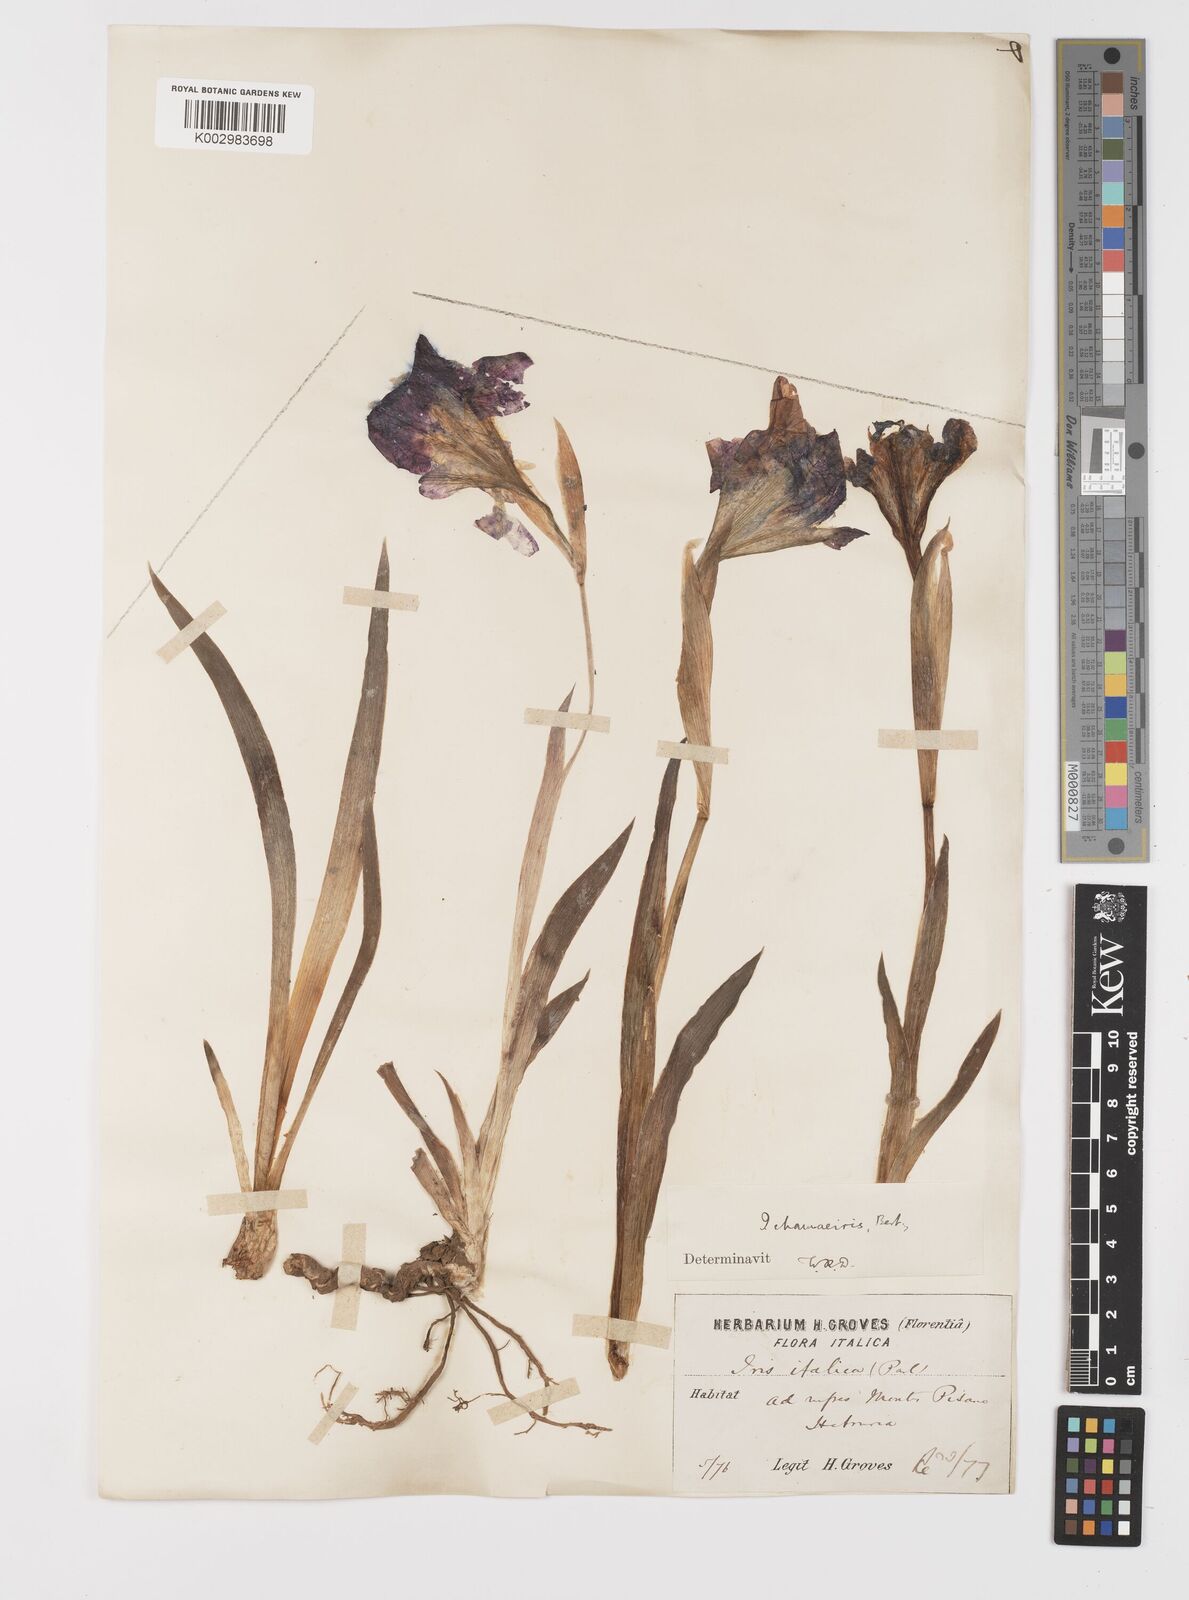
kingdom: Plantae
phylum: Tracheophyta
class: Liliopsida
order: Asparagales
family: Iridaceae
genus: Iris
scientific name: Iris lutescens
